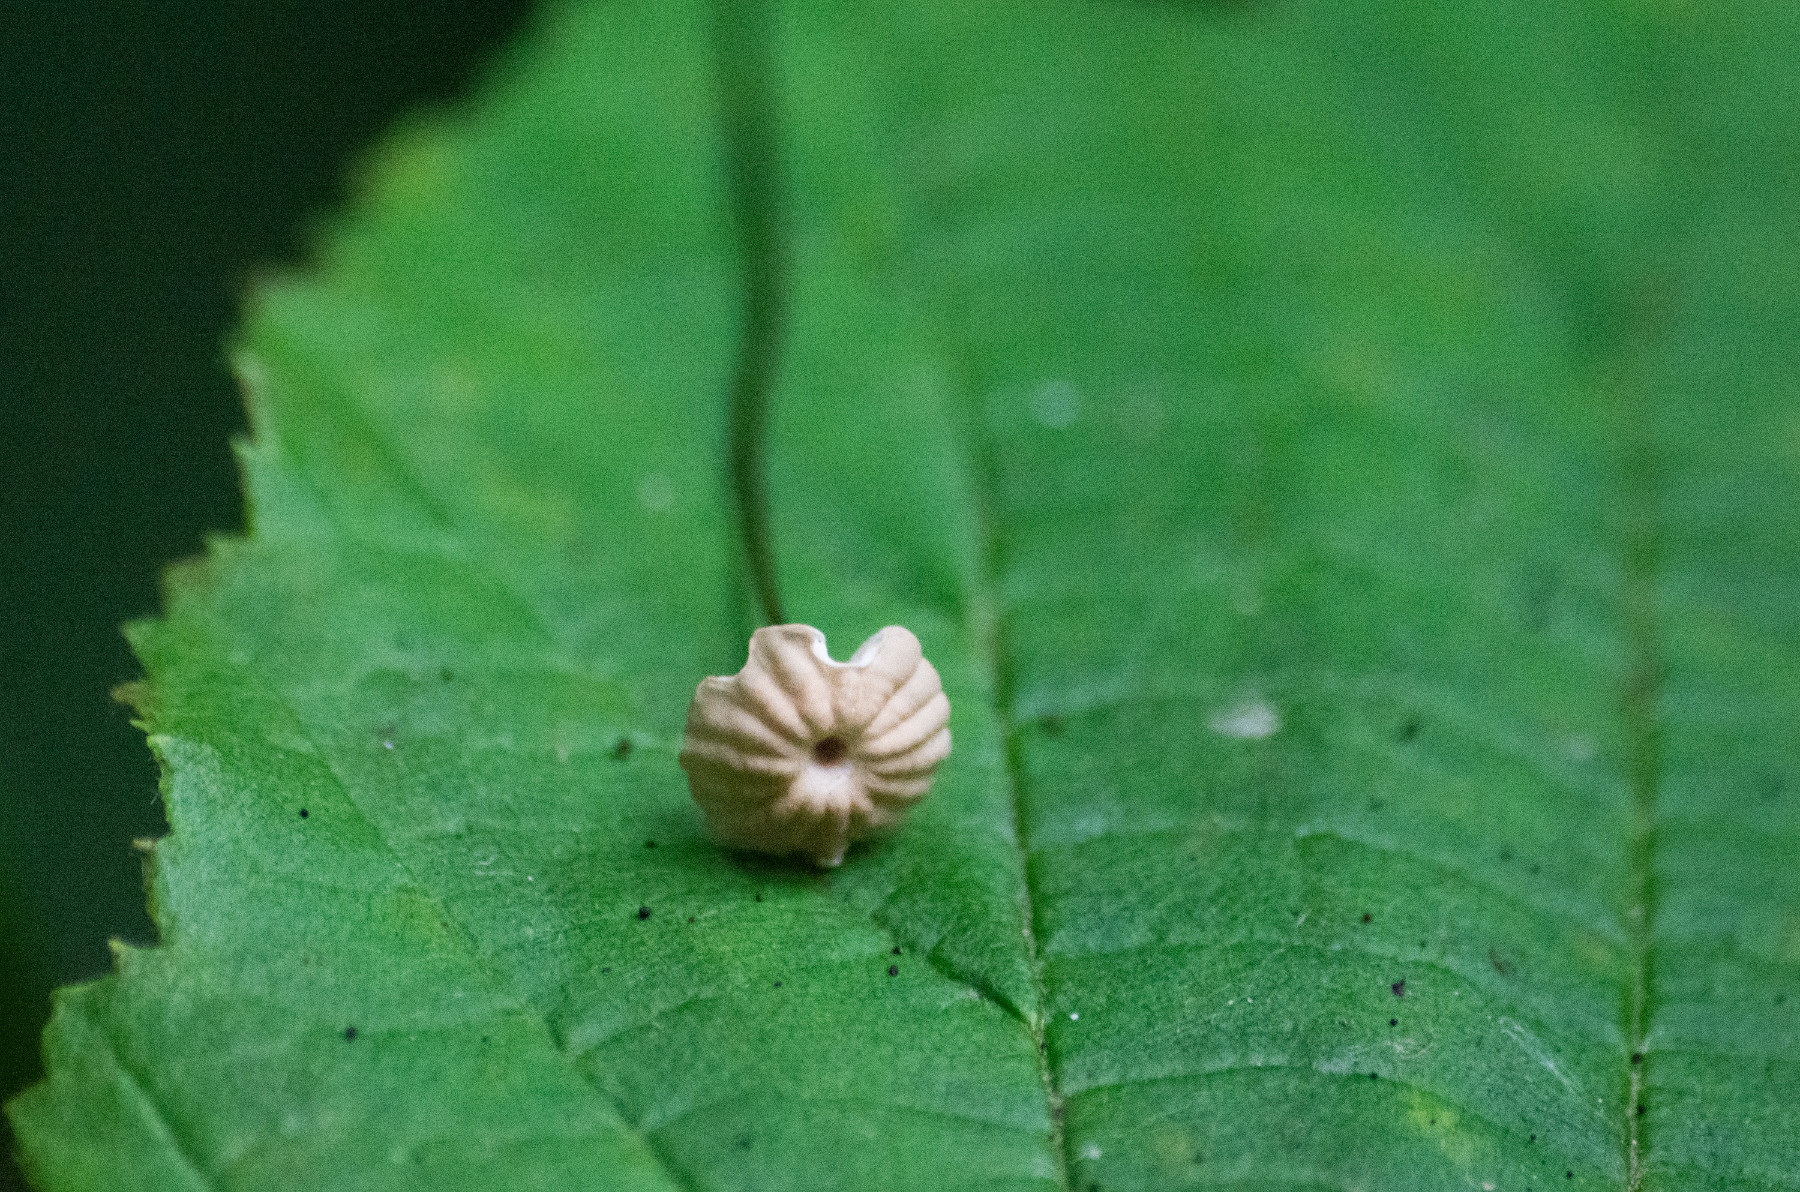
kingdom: Fungi
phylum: Basidiomycota
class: Agaricomycetes
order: Agaricales
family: Marasmiaceae
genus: Marasmius
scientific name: Marasmius
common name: bruskhat
